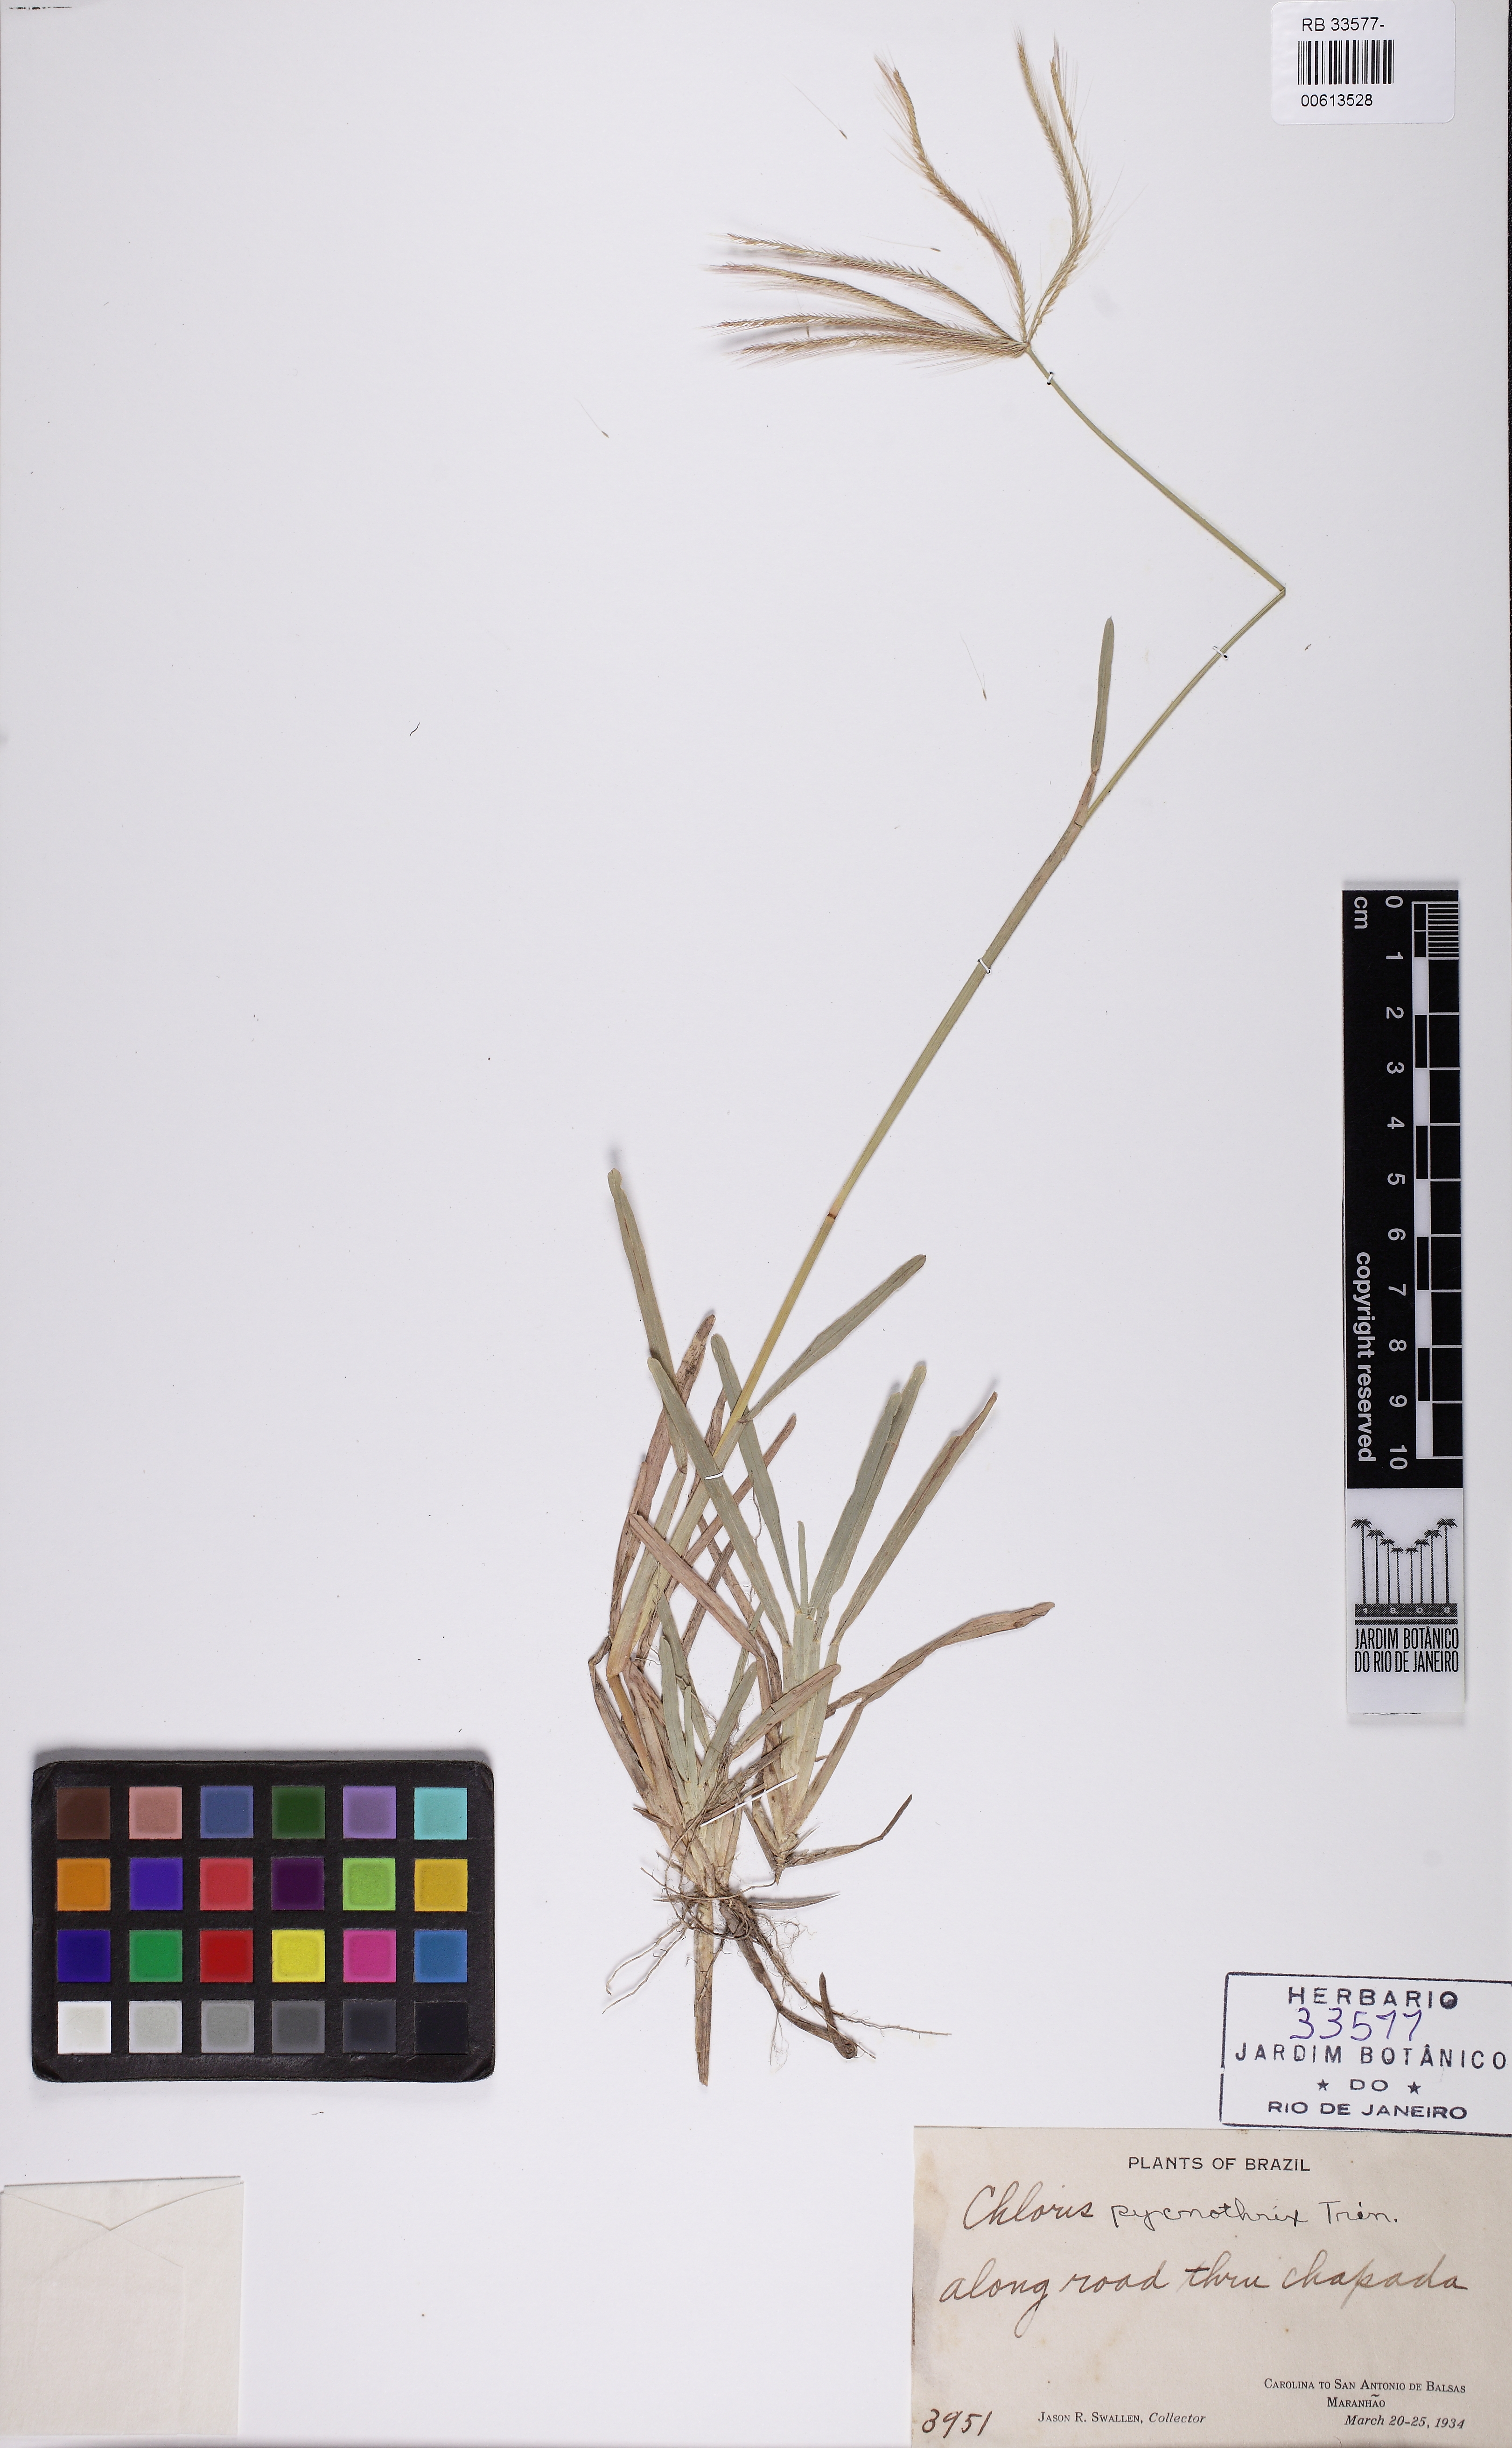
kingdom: Plantae
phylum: Tracheophyta
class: Liliopsida
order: Poales
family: Poaceae
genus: Chloris
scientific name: Chloris pycnothrix
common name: Spiderweb chloris
